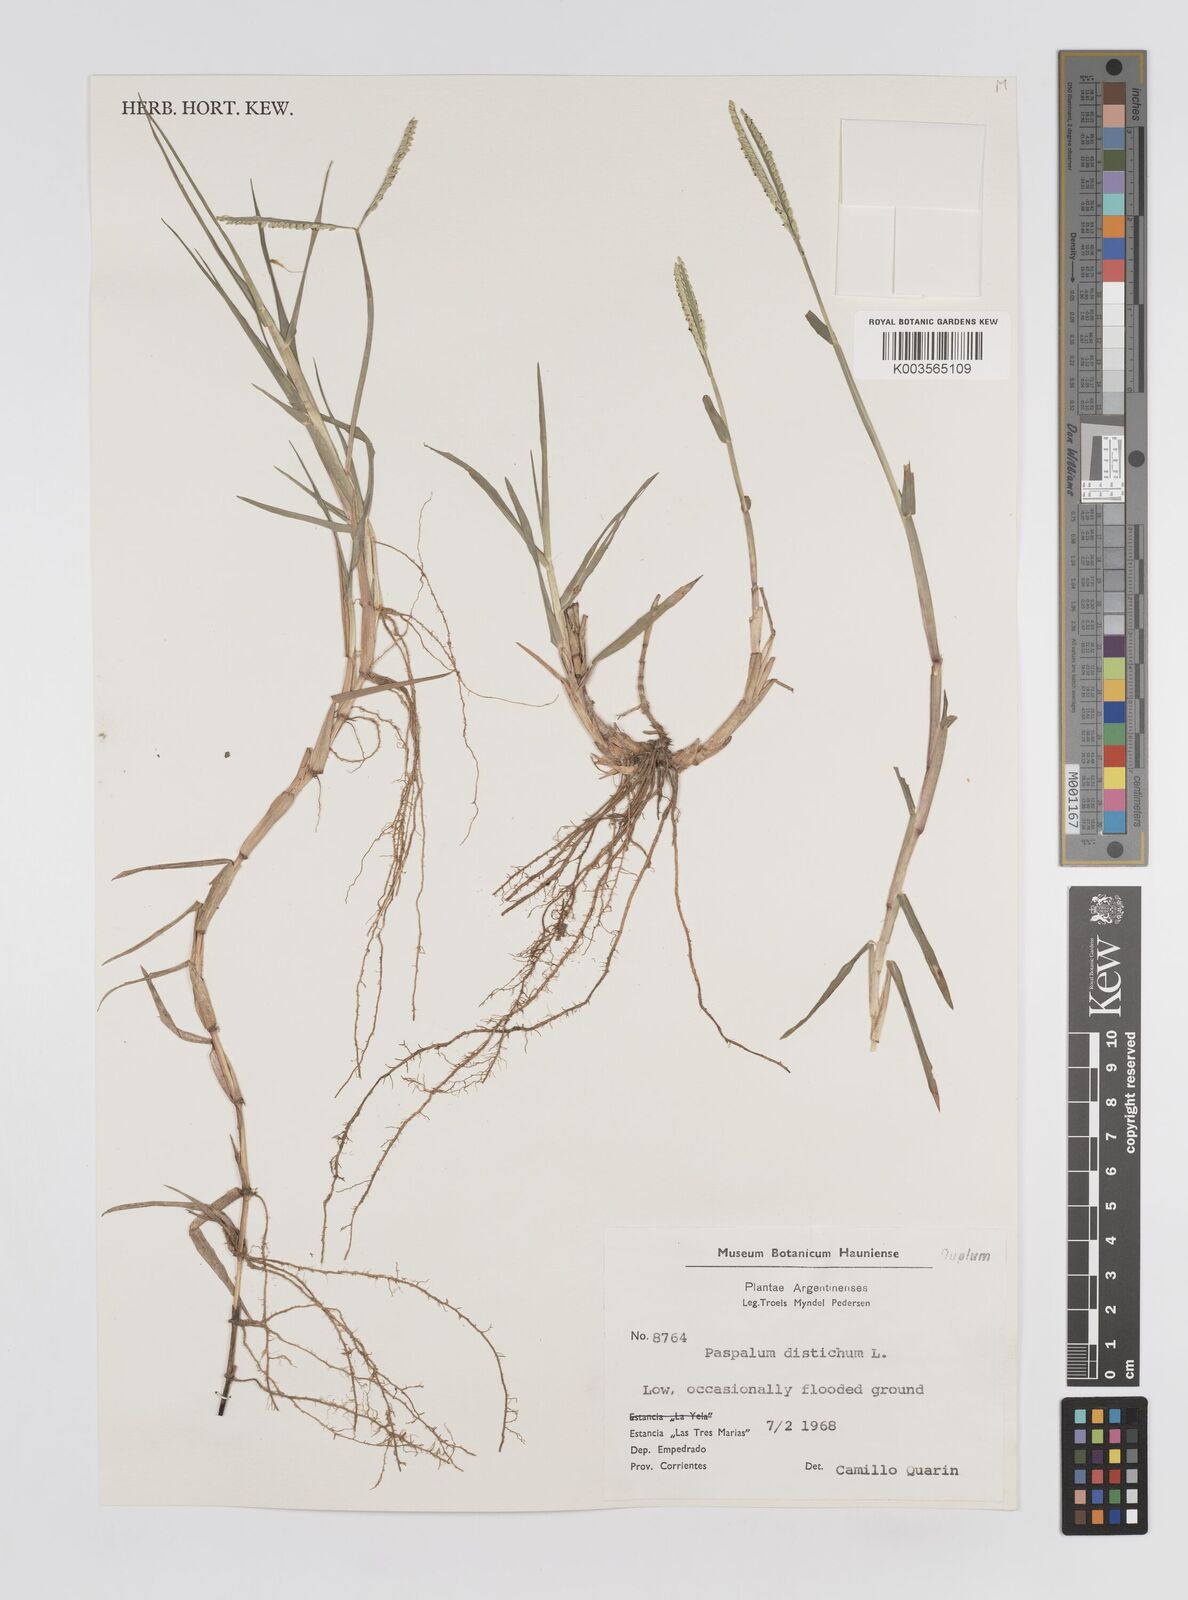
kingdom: Plantae
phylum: Tracheophyta
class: Liliopsida
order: Poales
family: Poaceae
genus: Paspalum
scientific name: Paspalum vaginatum
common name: Seashore paspalum
